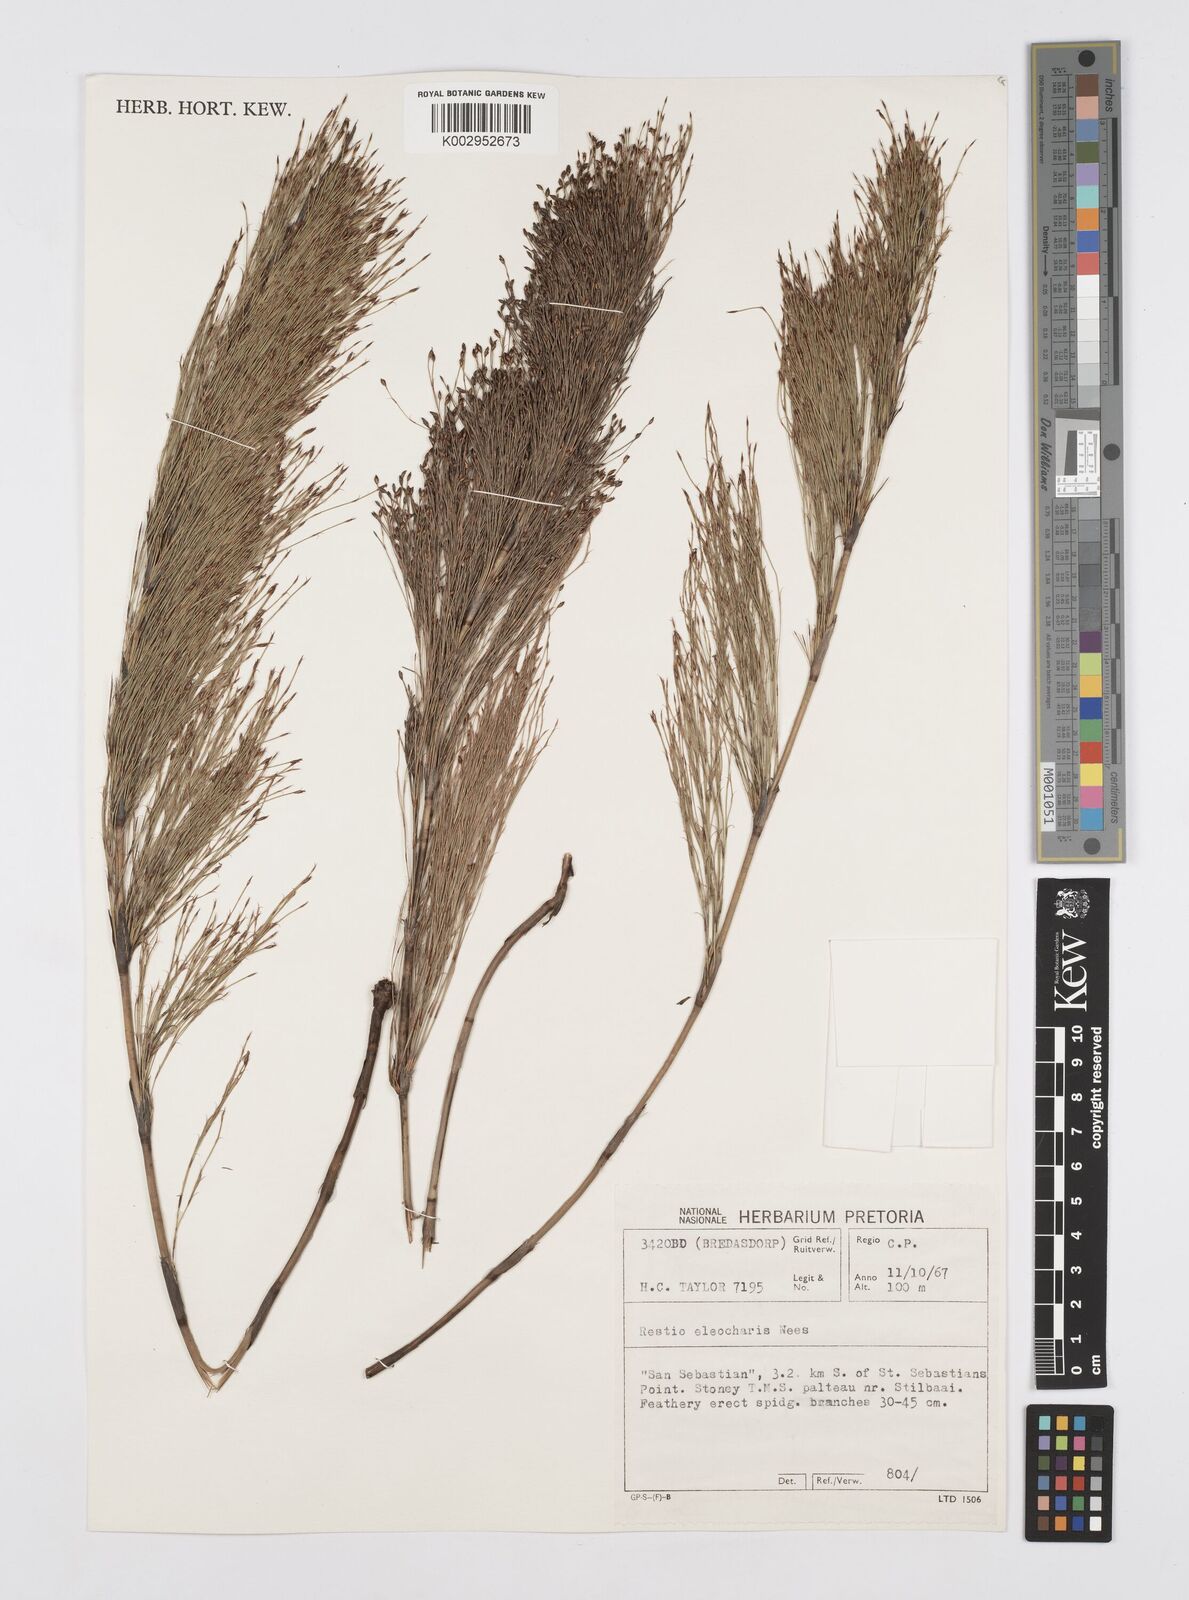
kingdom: Plantae
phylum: Tracheophyta
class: Liliopsida
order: Poales
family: Restionaceae
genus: Restio
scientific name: Restio leptoclados
